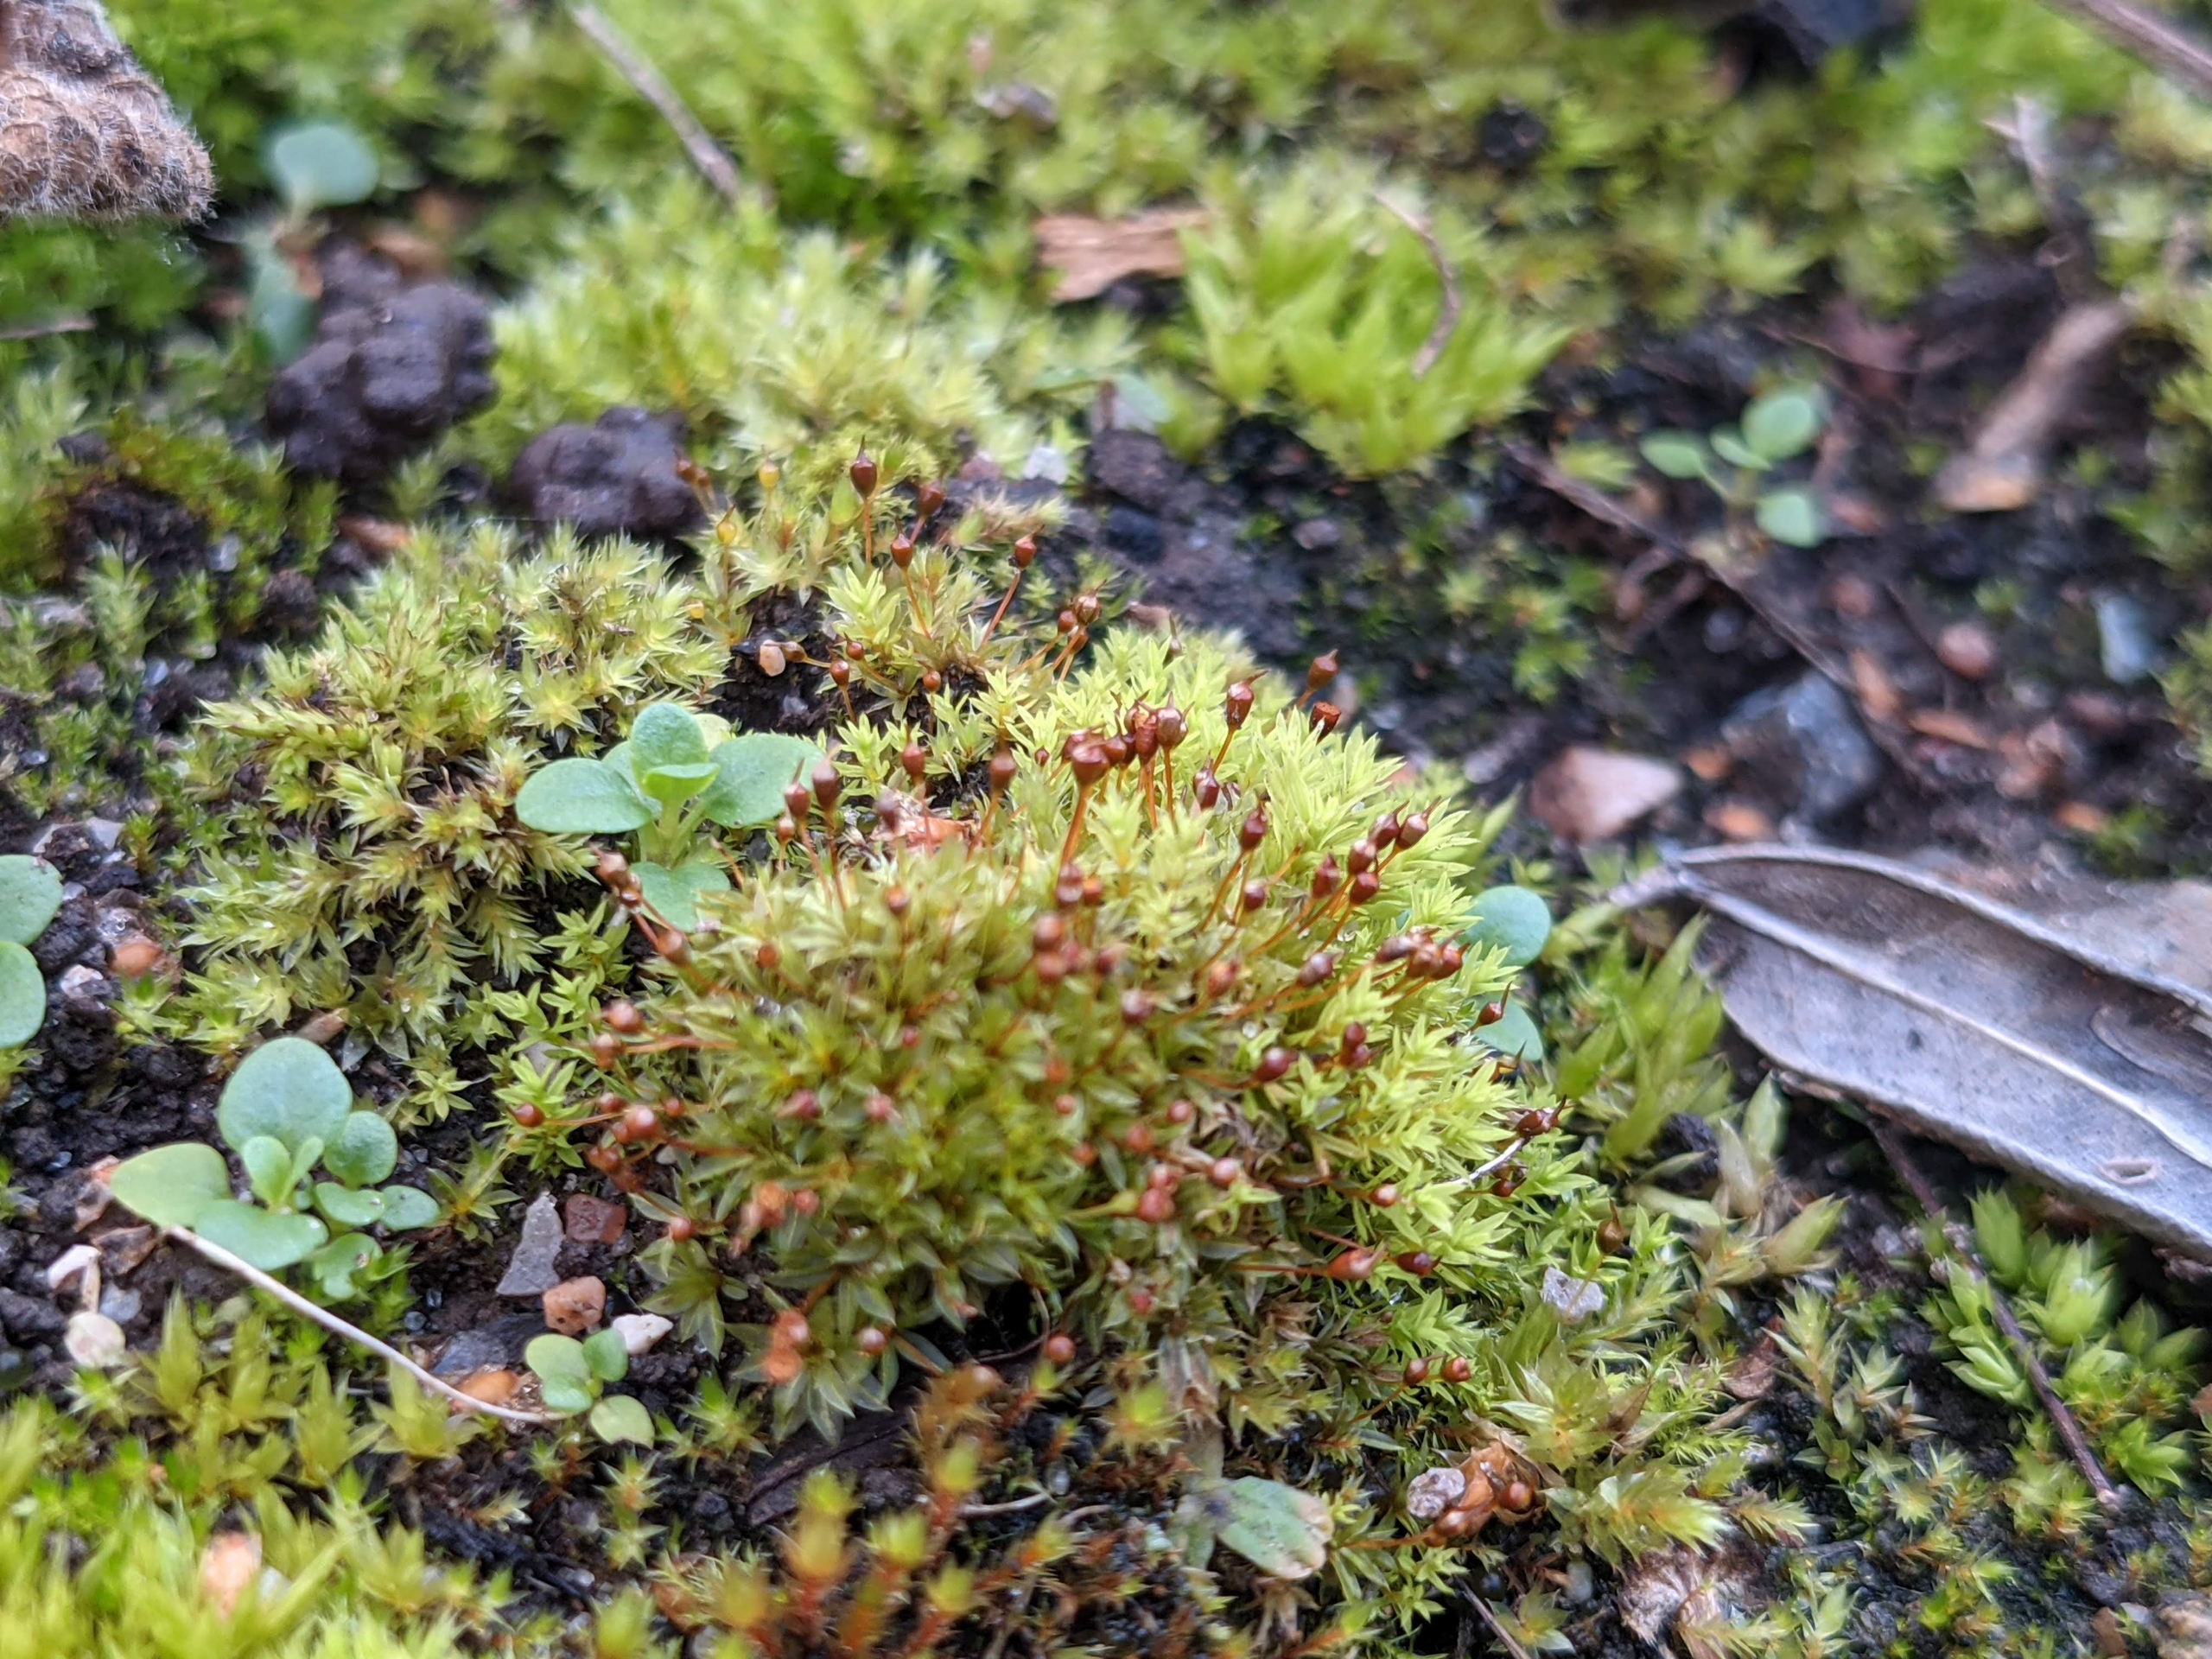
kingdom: Plantae
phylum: Bryophyta
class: Bryopsida
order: Pottiales
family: Pottiaceae
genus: Tortula
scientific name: Tortula truncata
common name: Vidmundet bægermos
